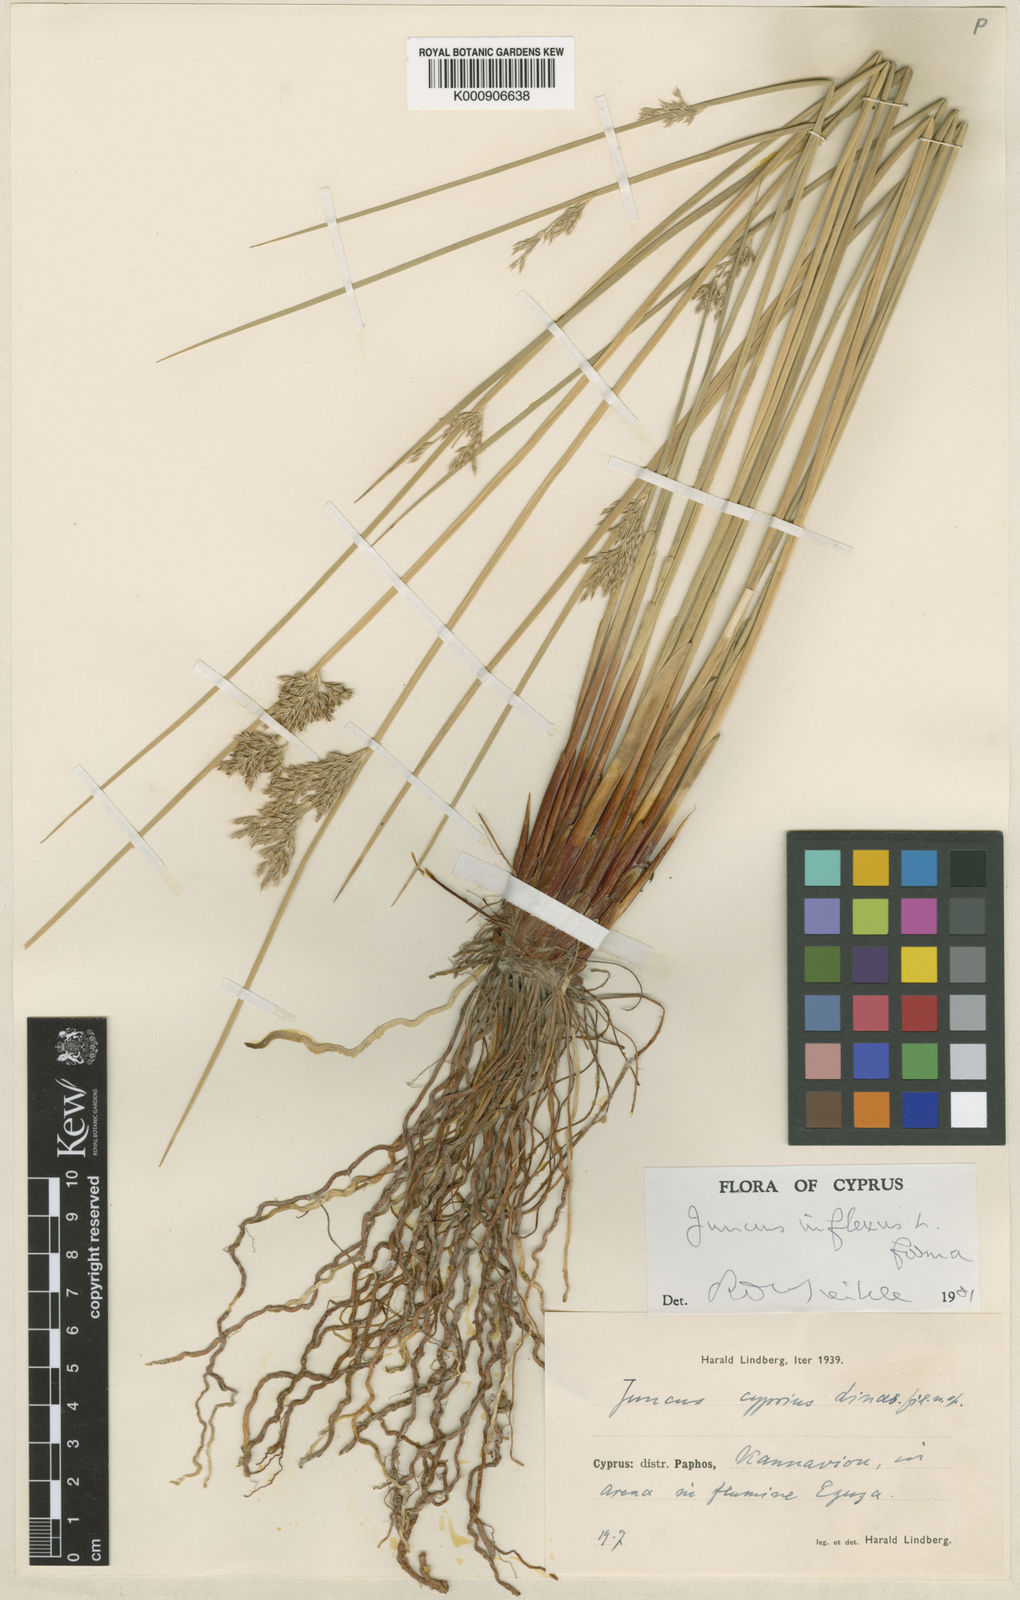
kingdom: Plantae
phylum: Tracheophyta
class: Liliopsida
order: Poales
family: Juncaceae
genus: Juncus
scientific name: Juncus inflexus
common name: Hard rush
